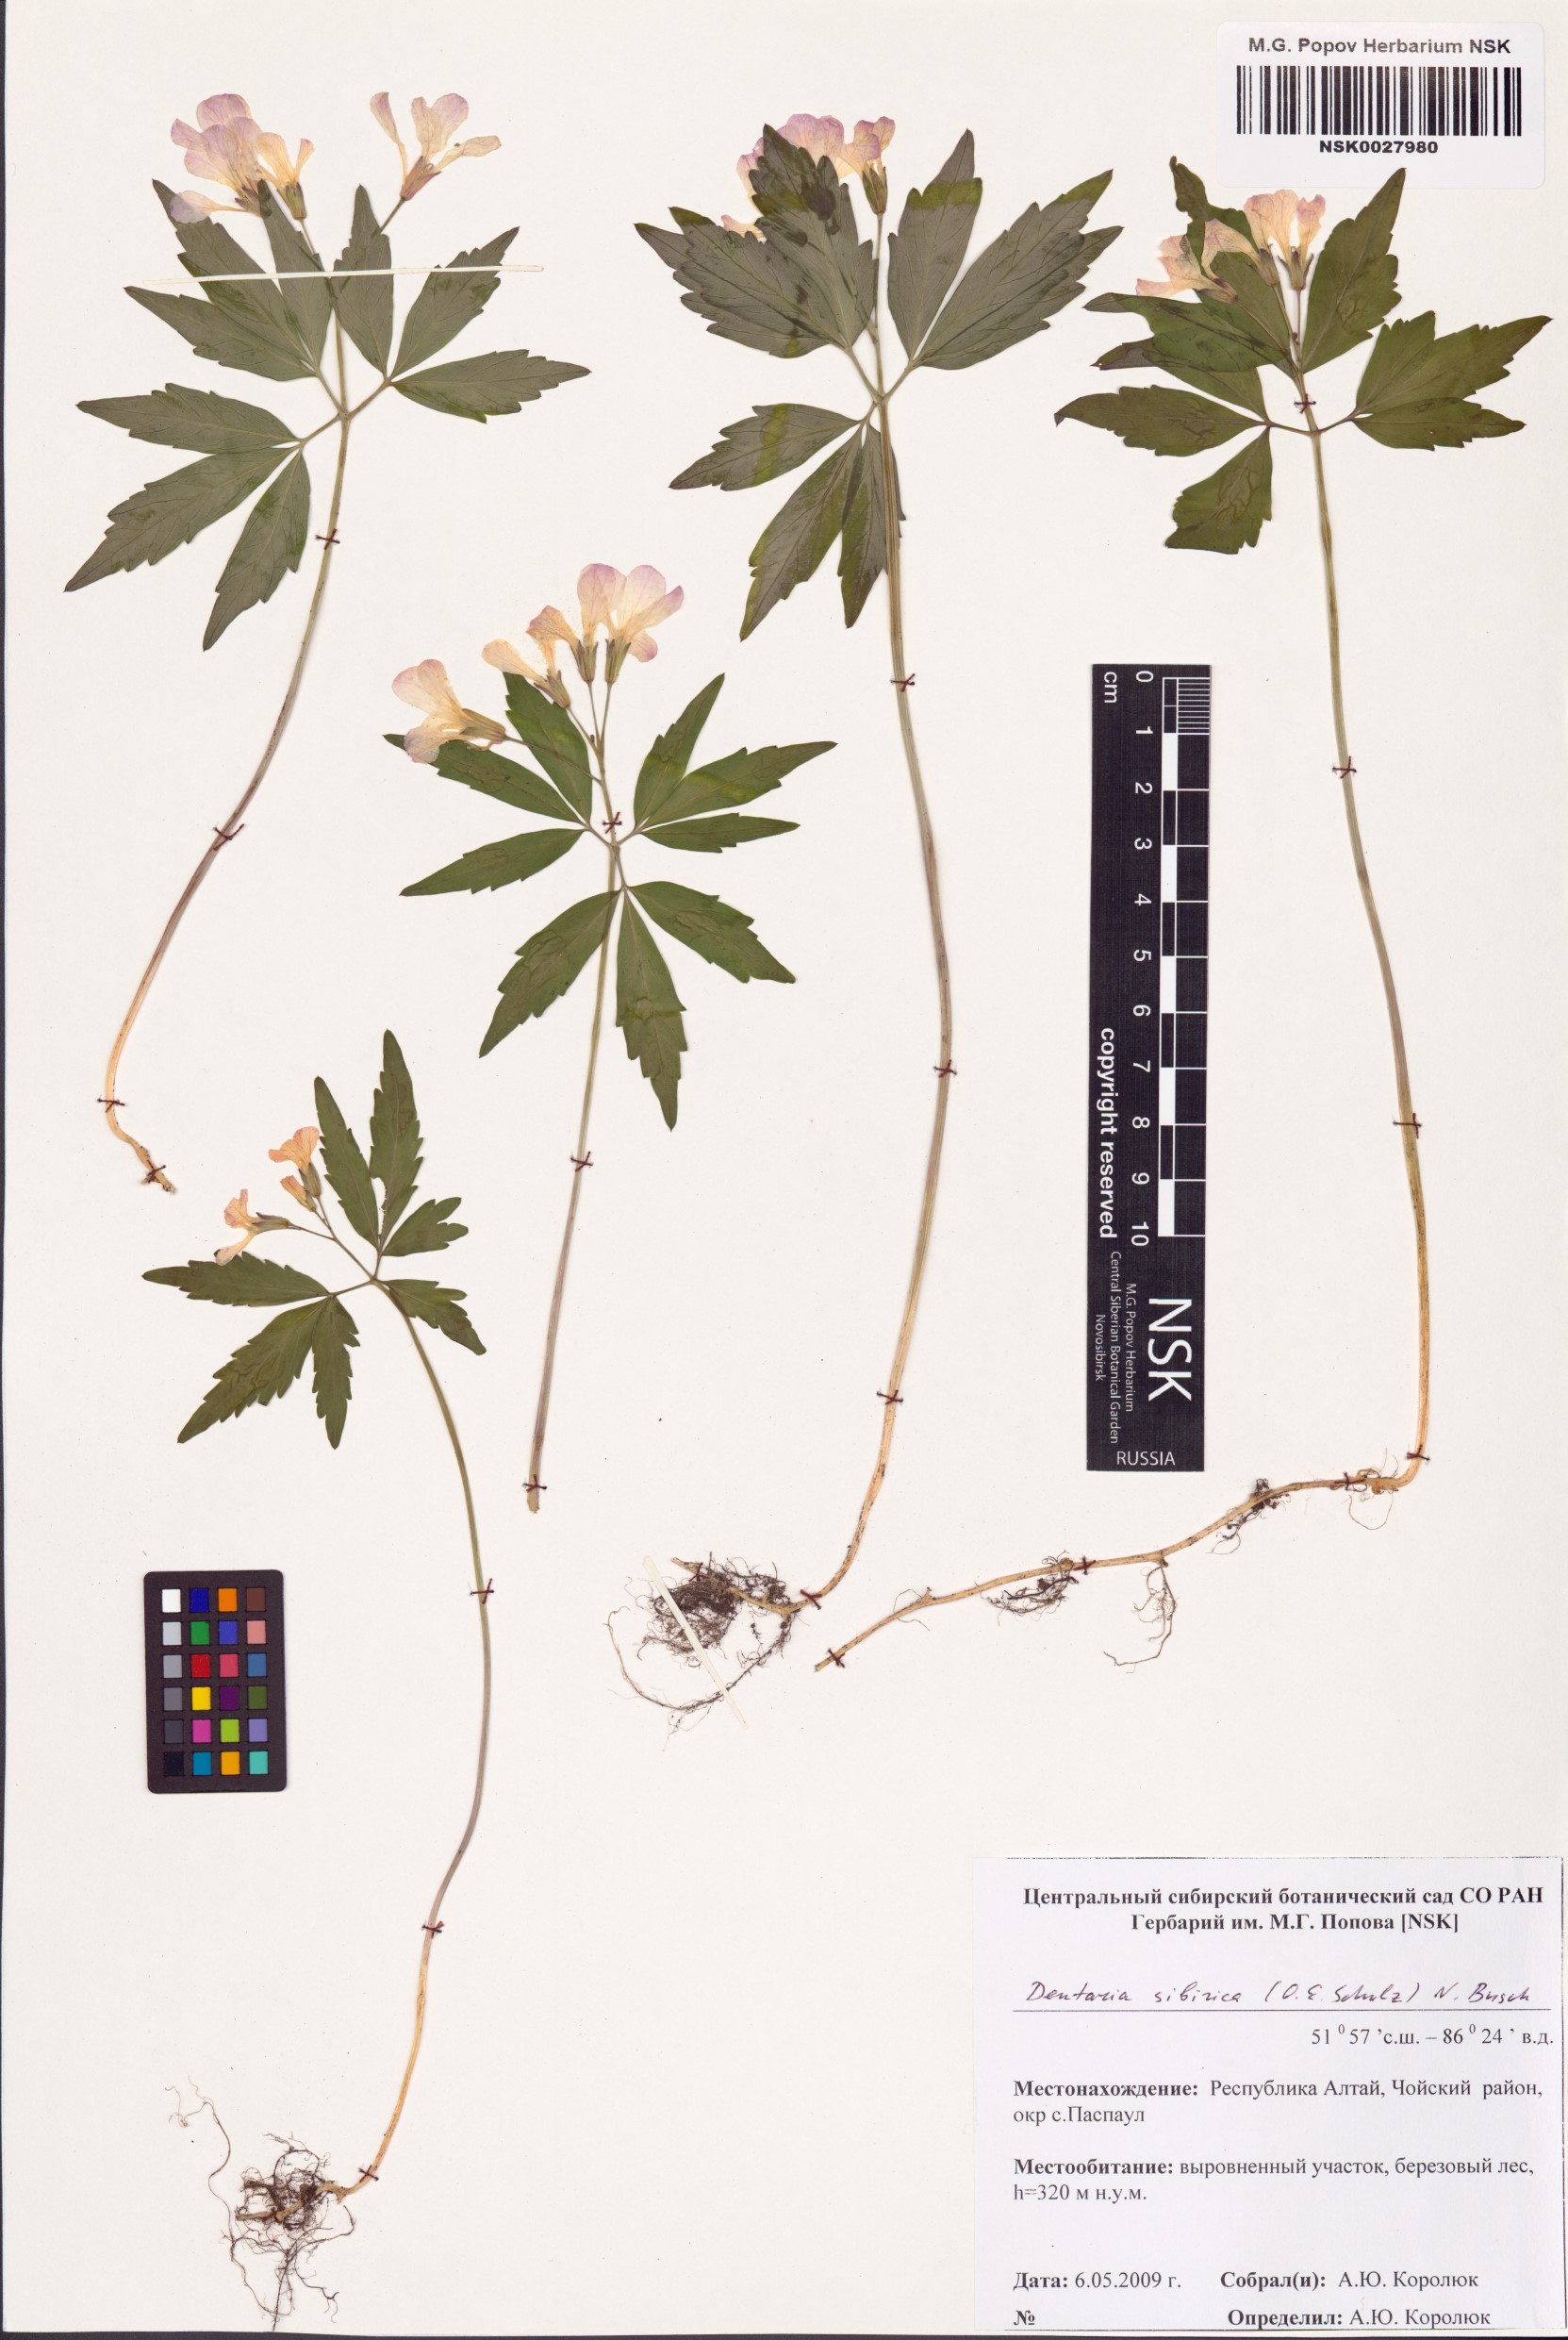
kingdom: Plantae
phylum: Tracheophyta
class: Magnoliopsida
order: Brassicales
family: Brassicaceae
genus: Cardamine
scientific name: Cardamine glanduligera
